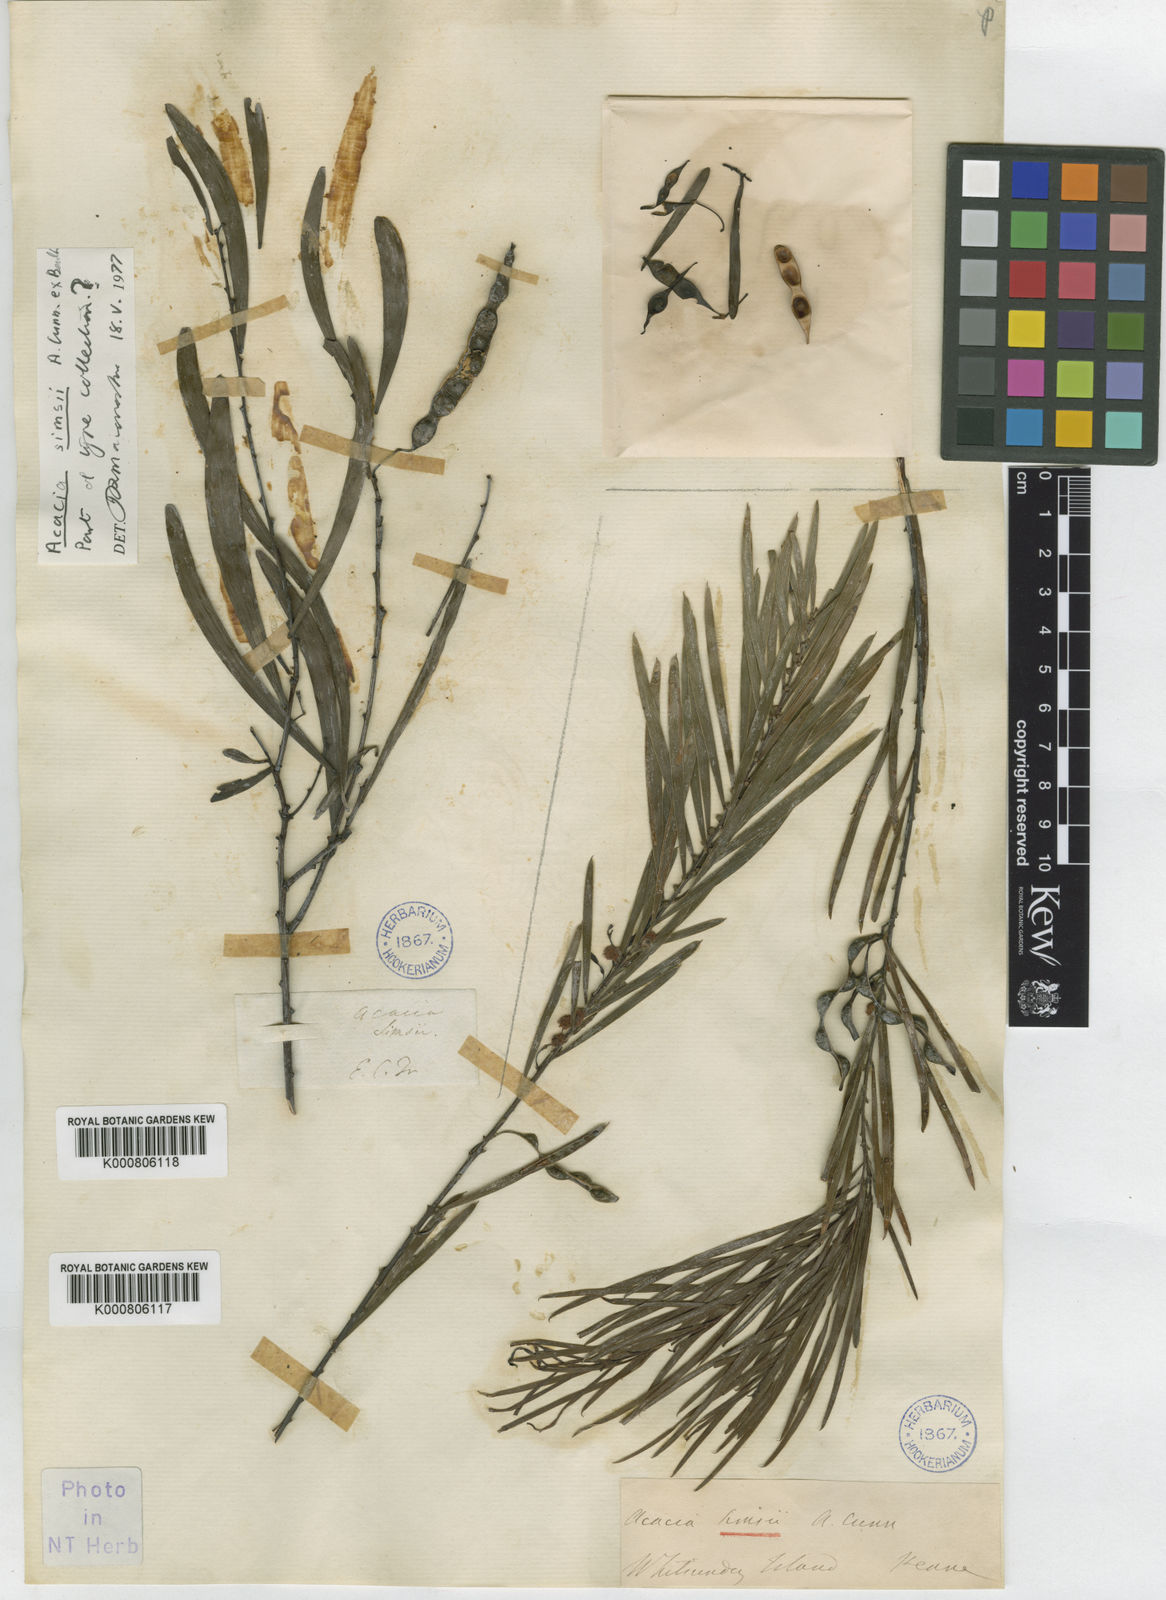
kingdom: Plantae
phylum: Tracheophyta
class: Magnoliopsida
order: Fabales
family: Fabaceae
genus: Acacia
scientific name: Acacia simsii
